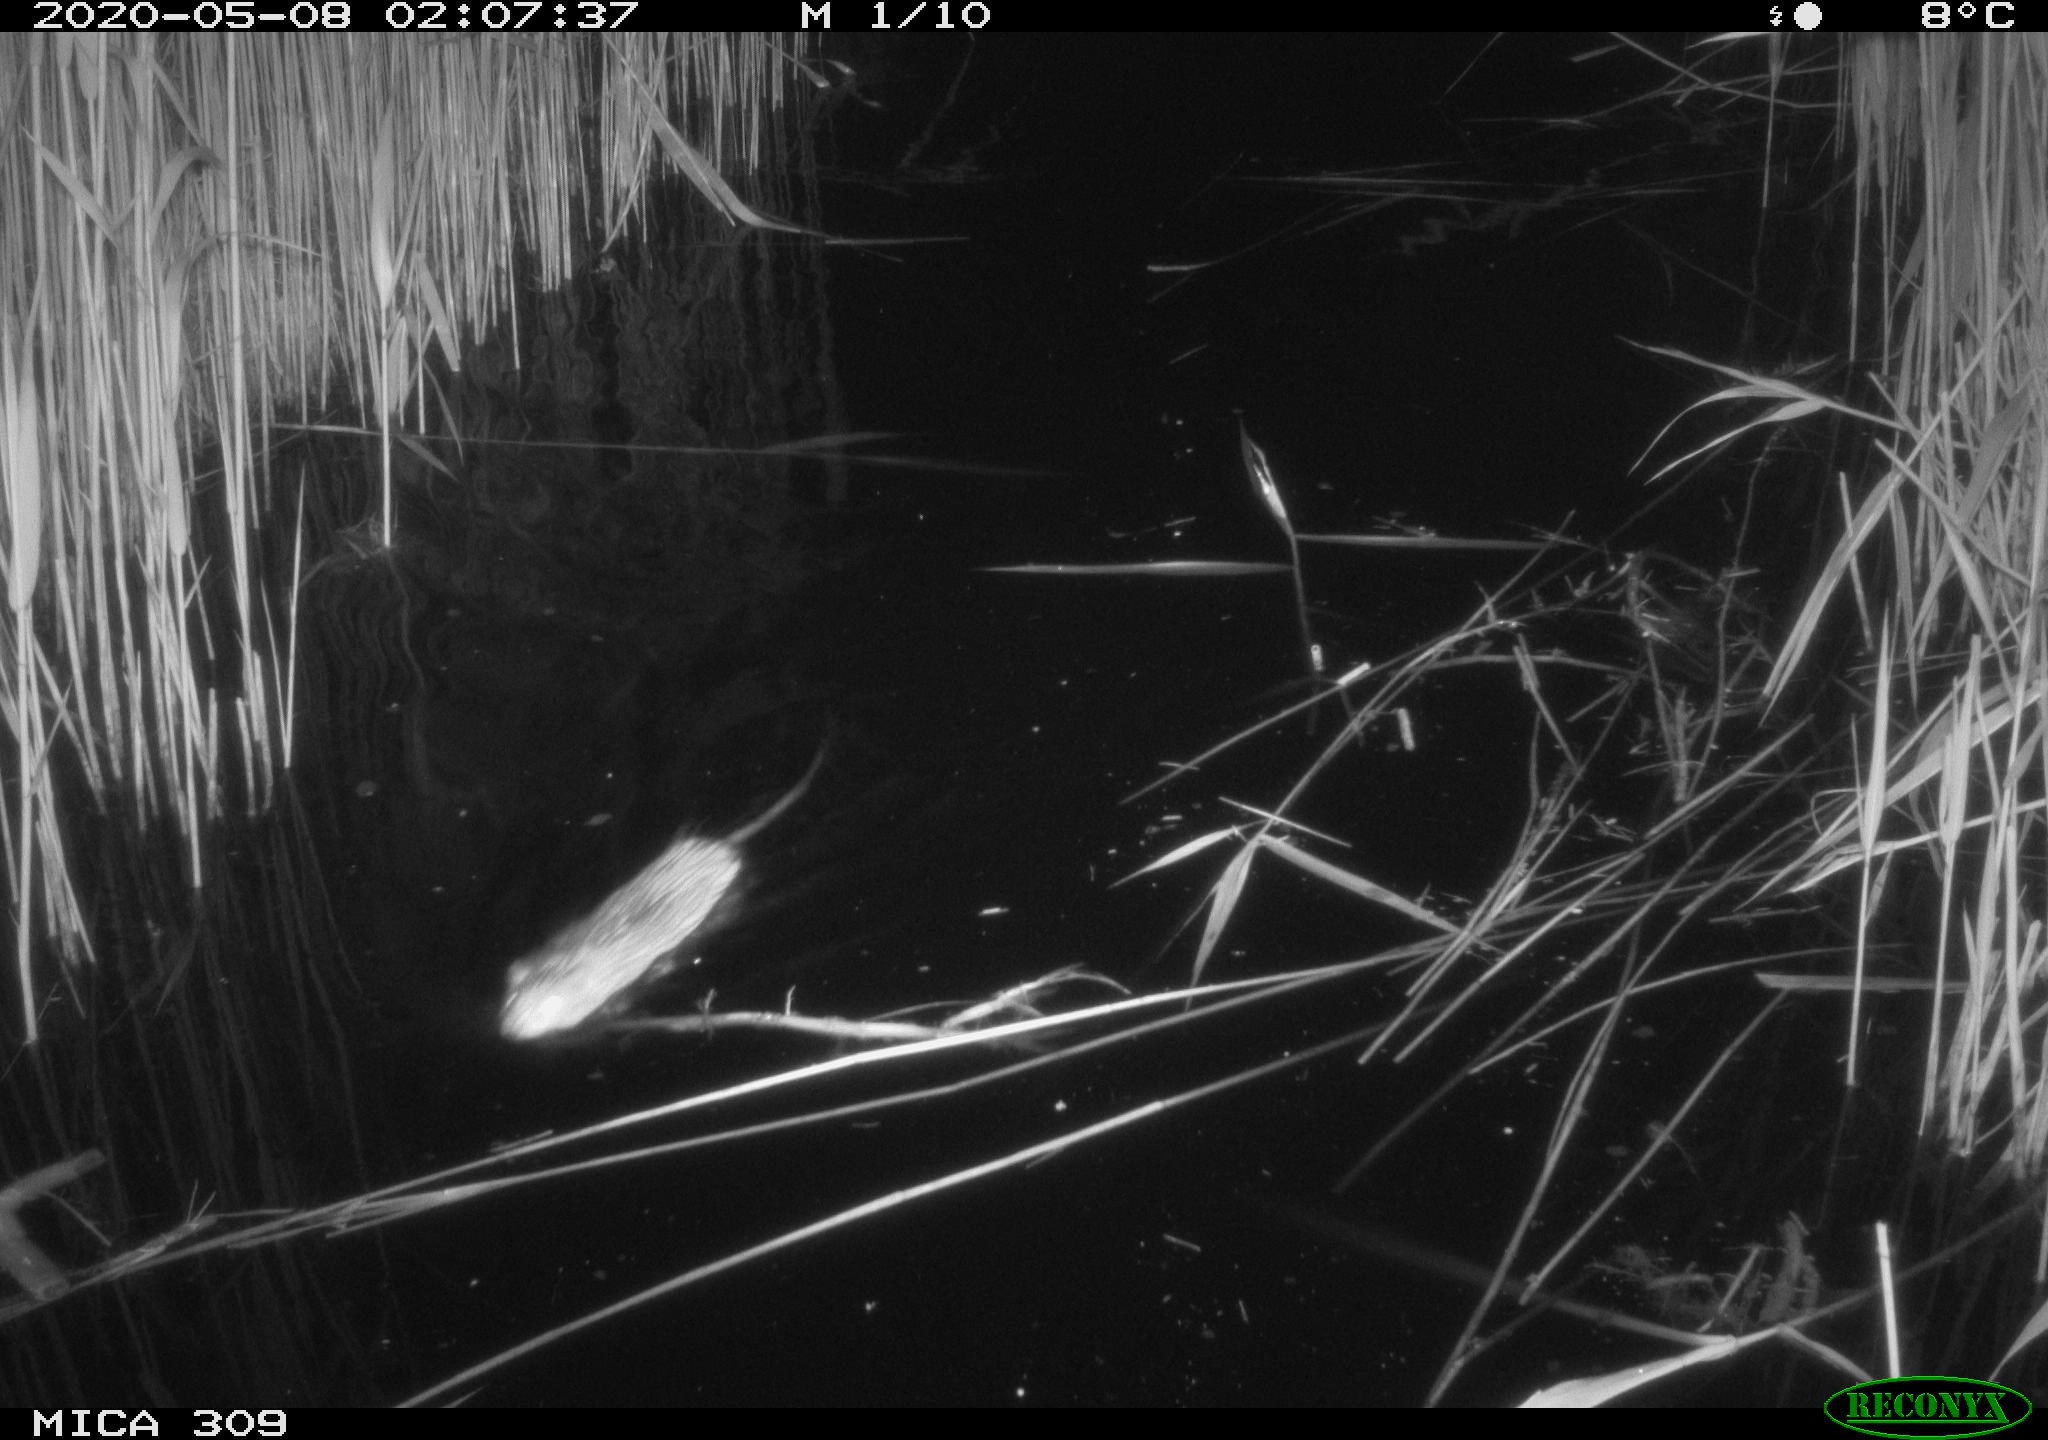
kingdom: Animalia
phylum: Chordata
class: Mammalia
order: Rodentia
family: Muridae
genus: Rattus
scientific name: Rattus norvegicus
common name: Brown rat
